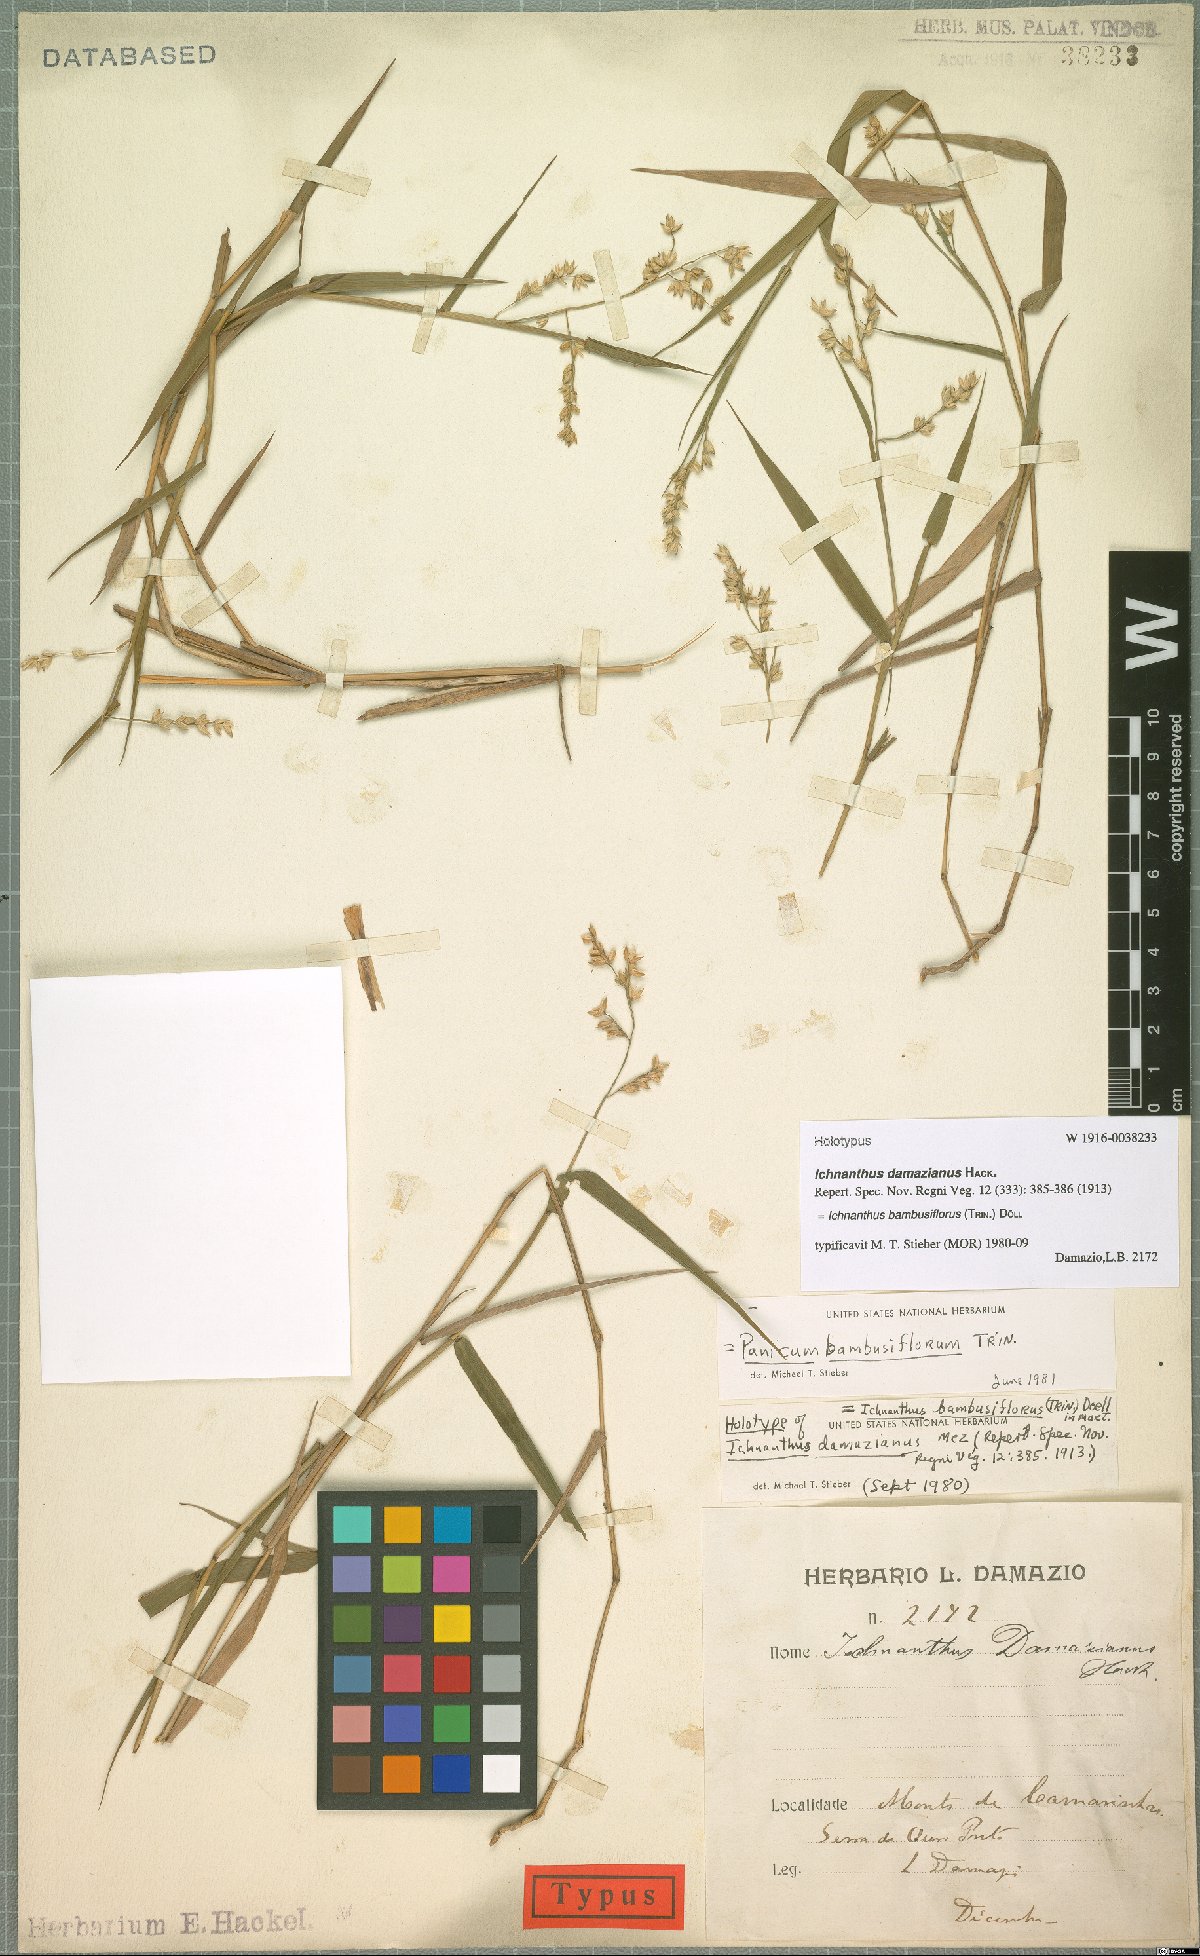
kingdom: Plantae
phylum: Tracheophyta
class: Liliopsida
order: Poales
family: Poaceae
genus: Ichnanthus
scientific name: Ichnanthus bambusiflorus
